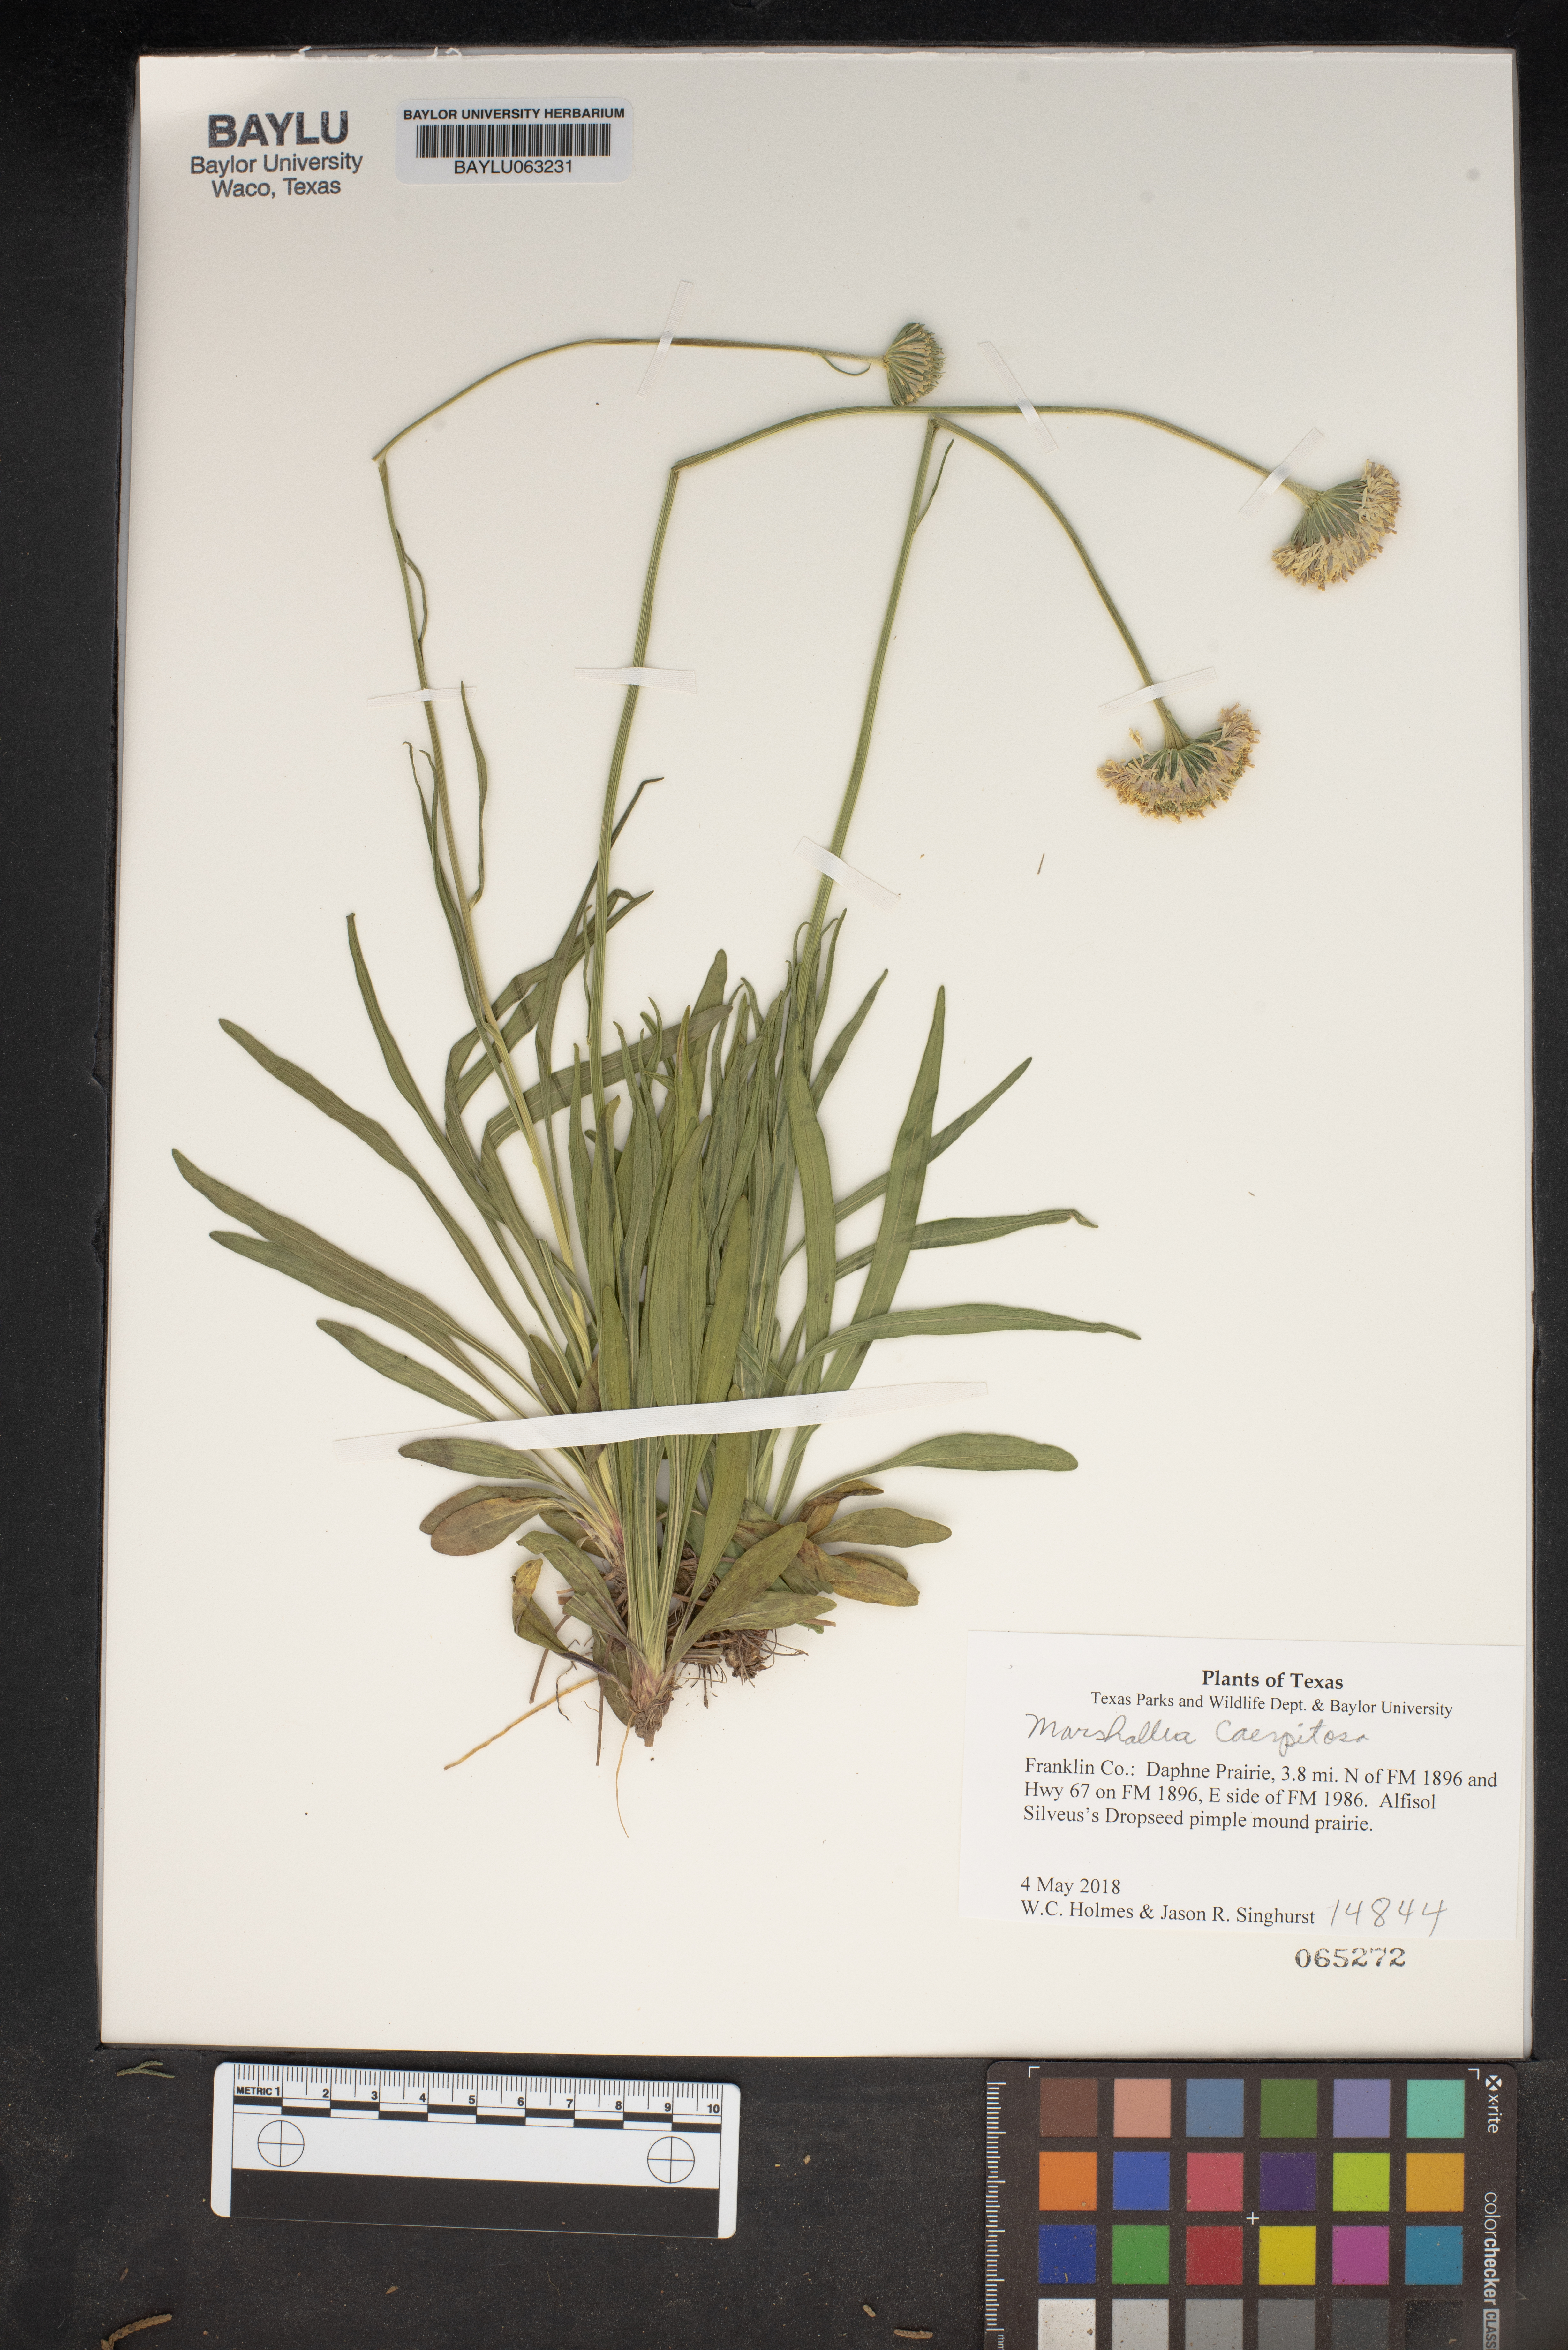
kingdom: Plantae
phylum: Tracheophyta
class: Magnoliopsida
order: Asterales
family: Asteraceae
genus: Marshallia
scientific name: Marshallia caespitosa
